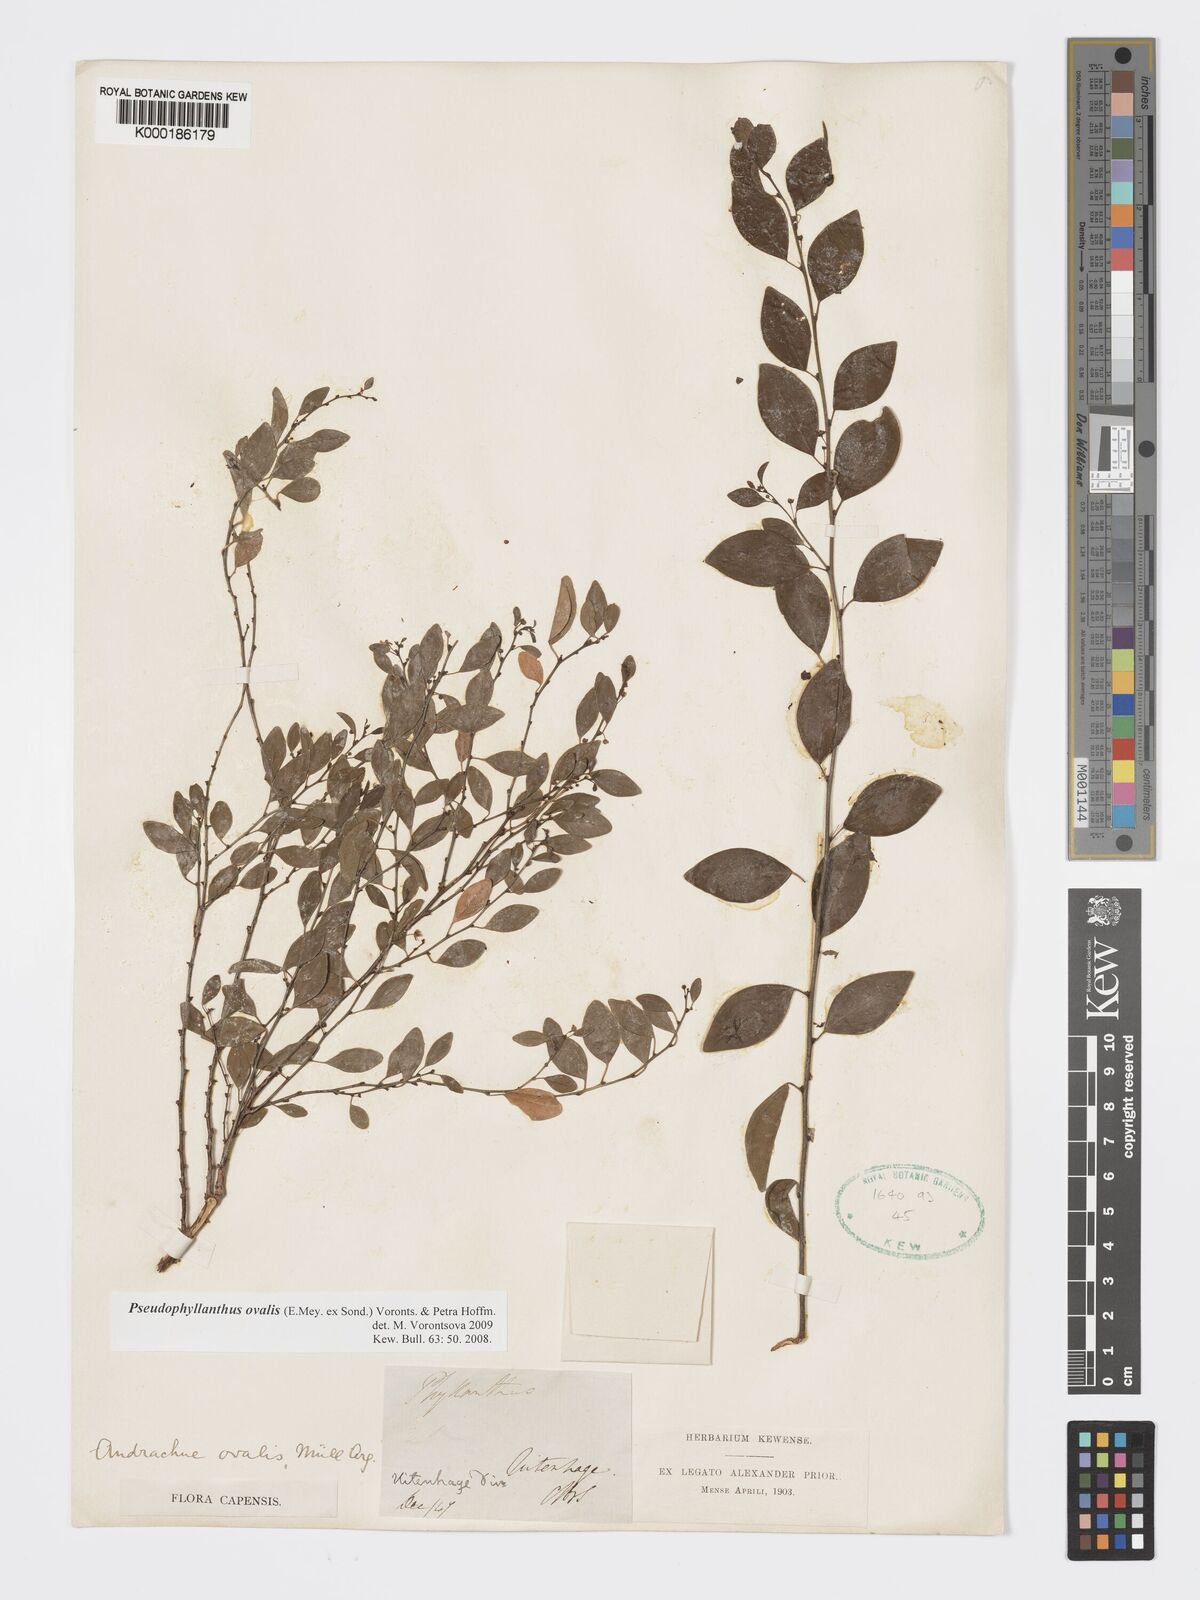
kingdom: Plantae
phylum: Tracheophyta
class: Magnoliopsida
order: Malpighiales
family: Phyllanthaceae
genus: Pseudophyllanthus
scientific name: Pseudophyllanthus ovalis
